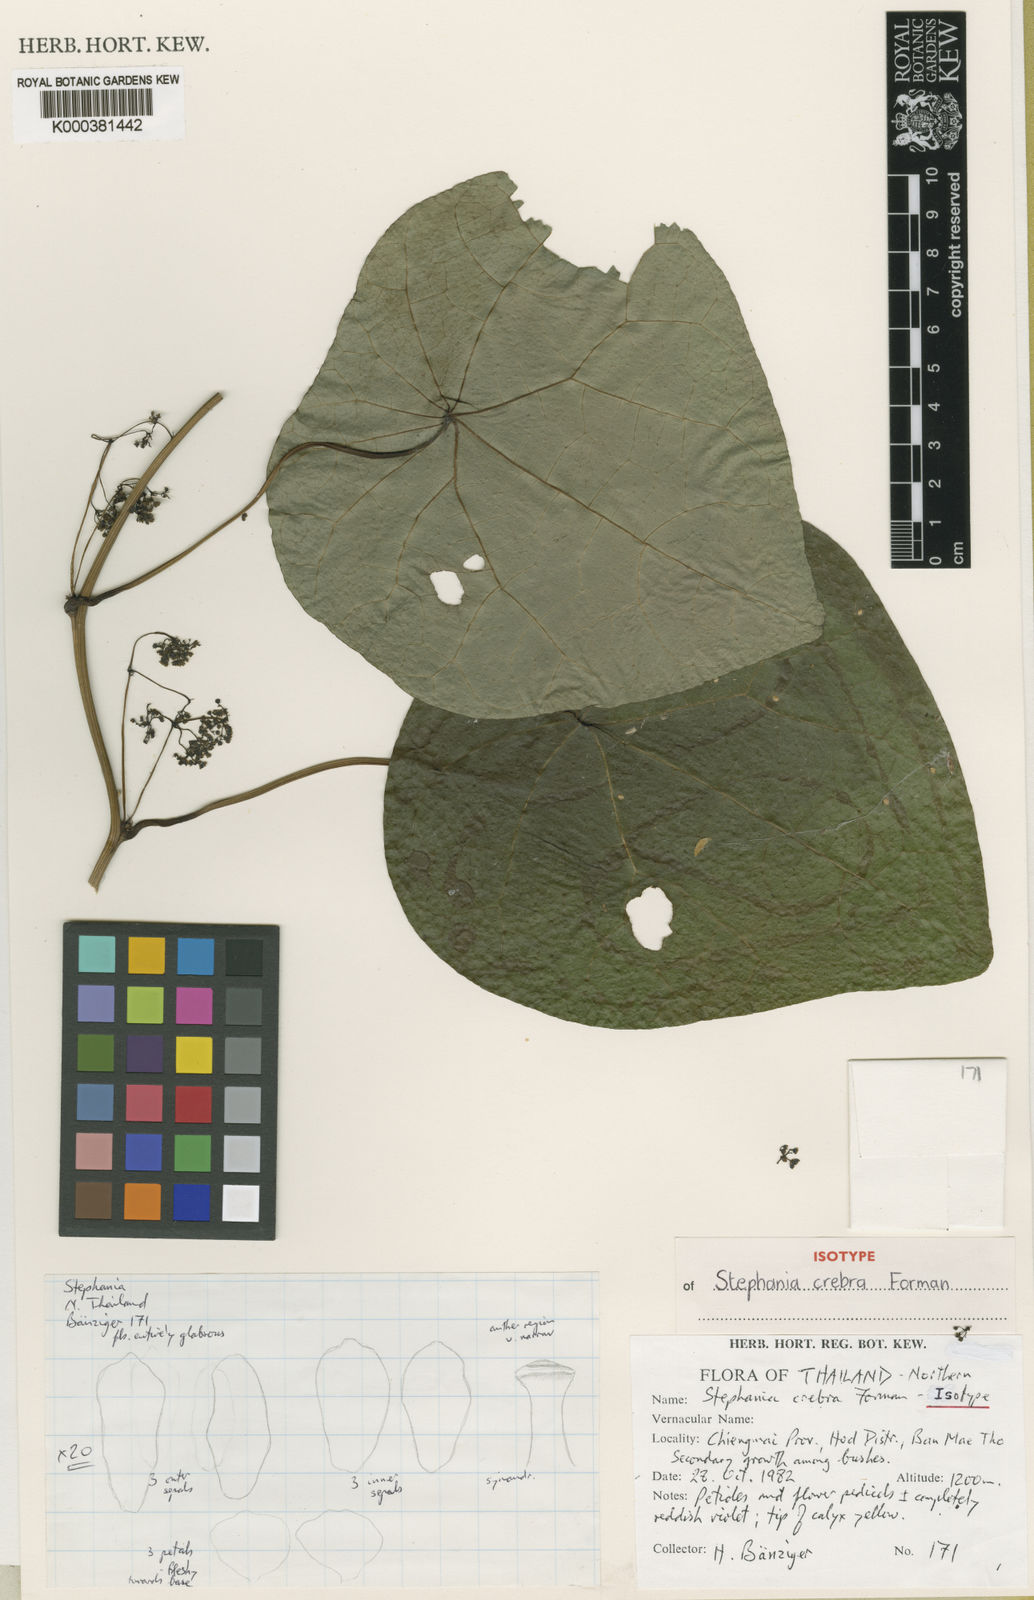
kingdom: Plantae
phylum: Tracheophyta
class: Magnoliopsida
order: Ranunculales
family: Menispermaceae
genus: Stephania
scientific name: Stephania crebra
